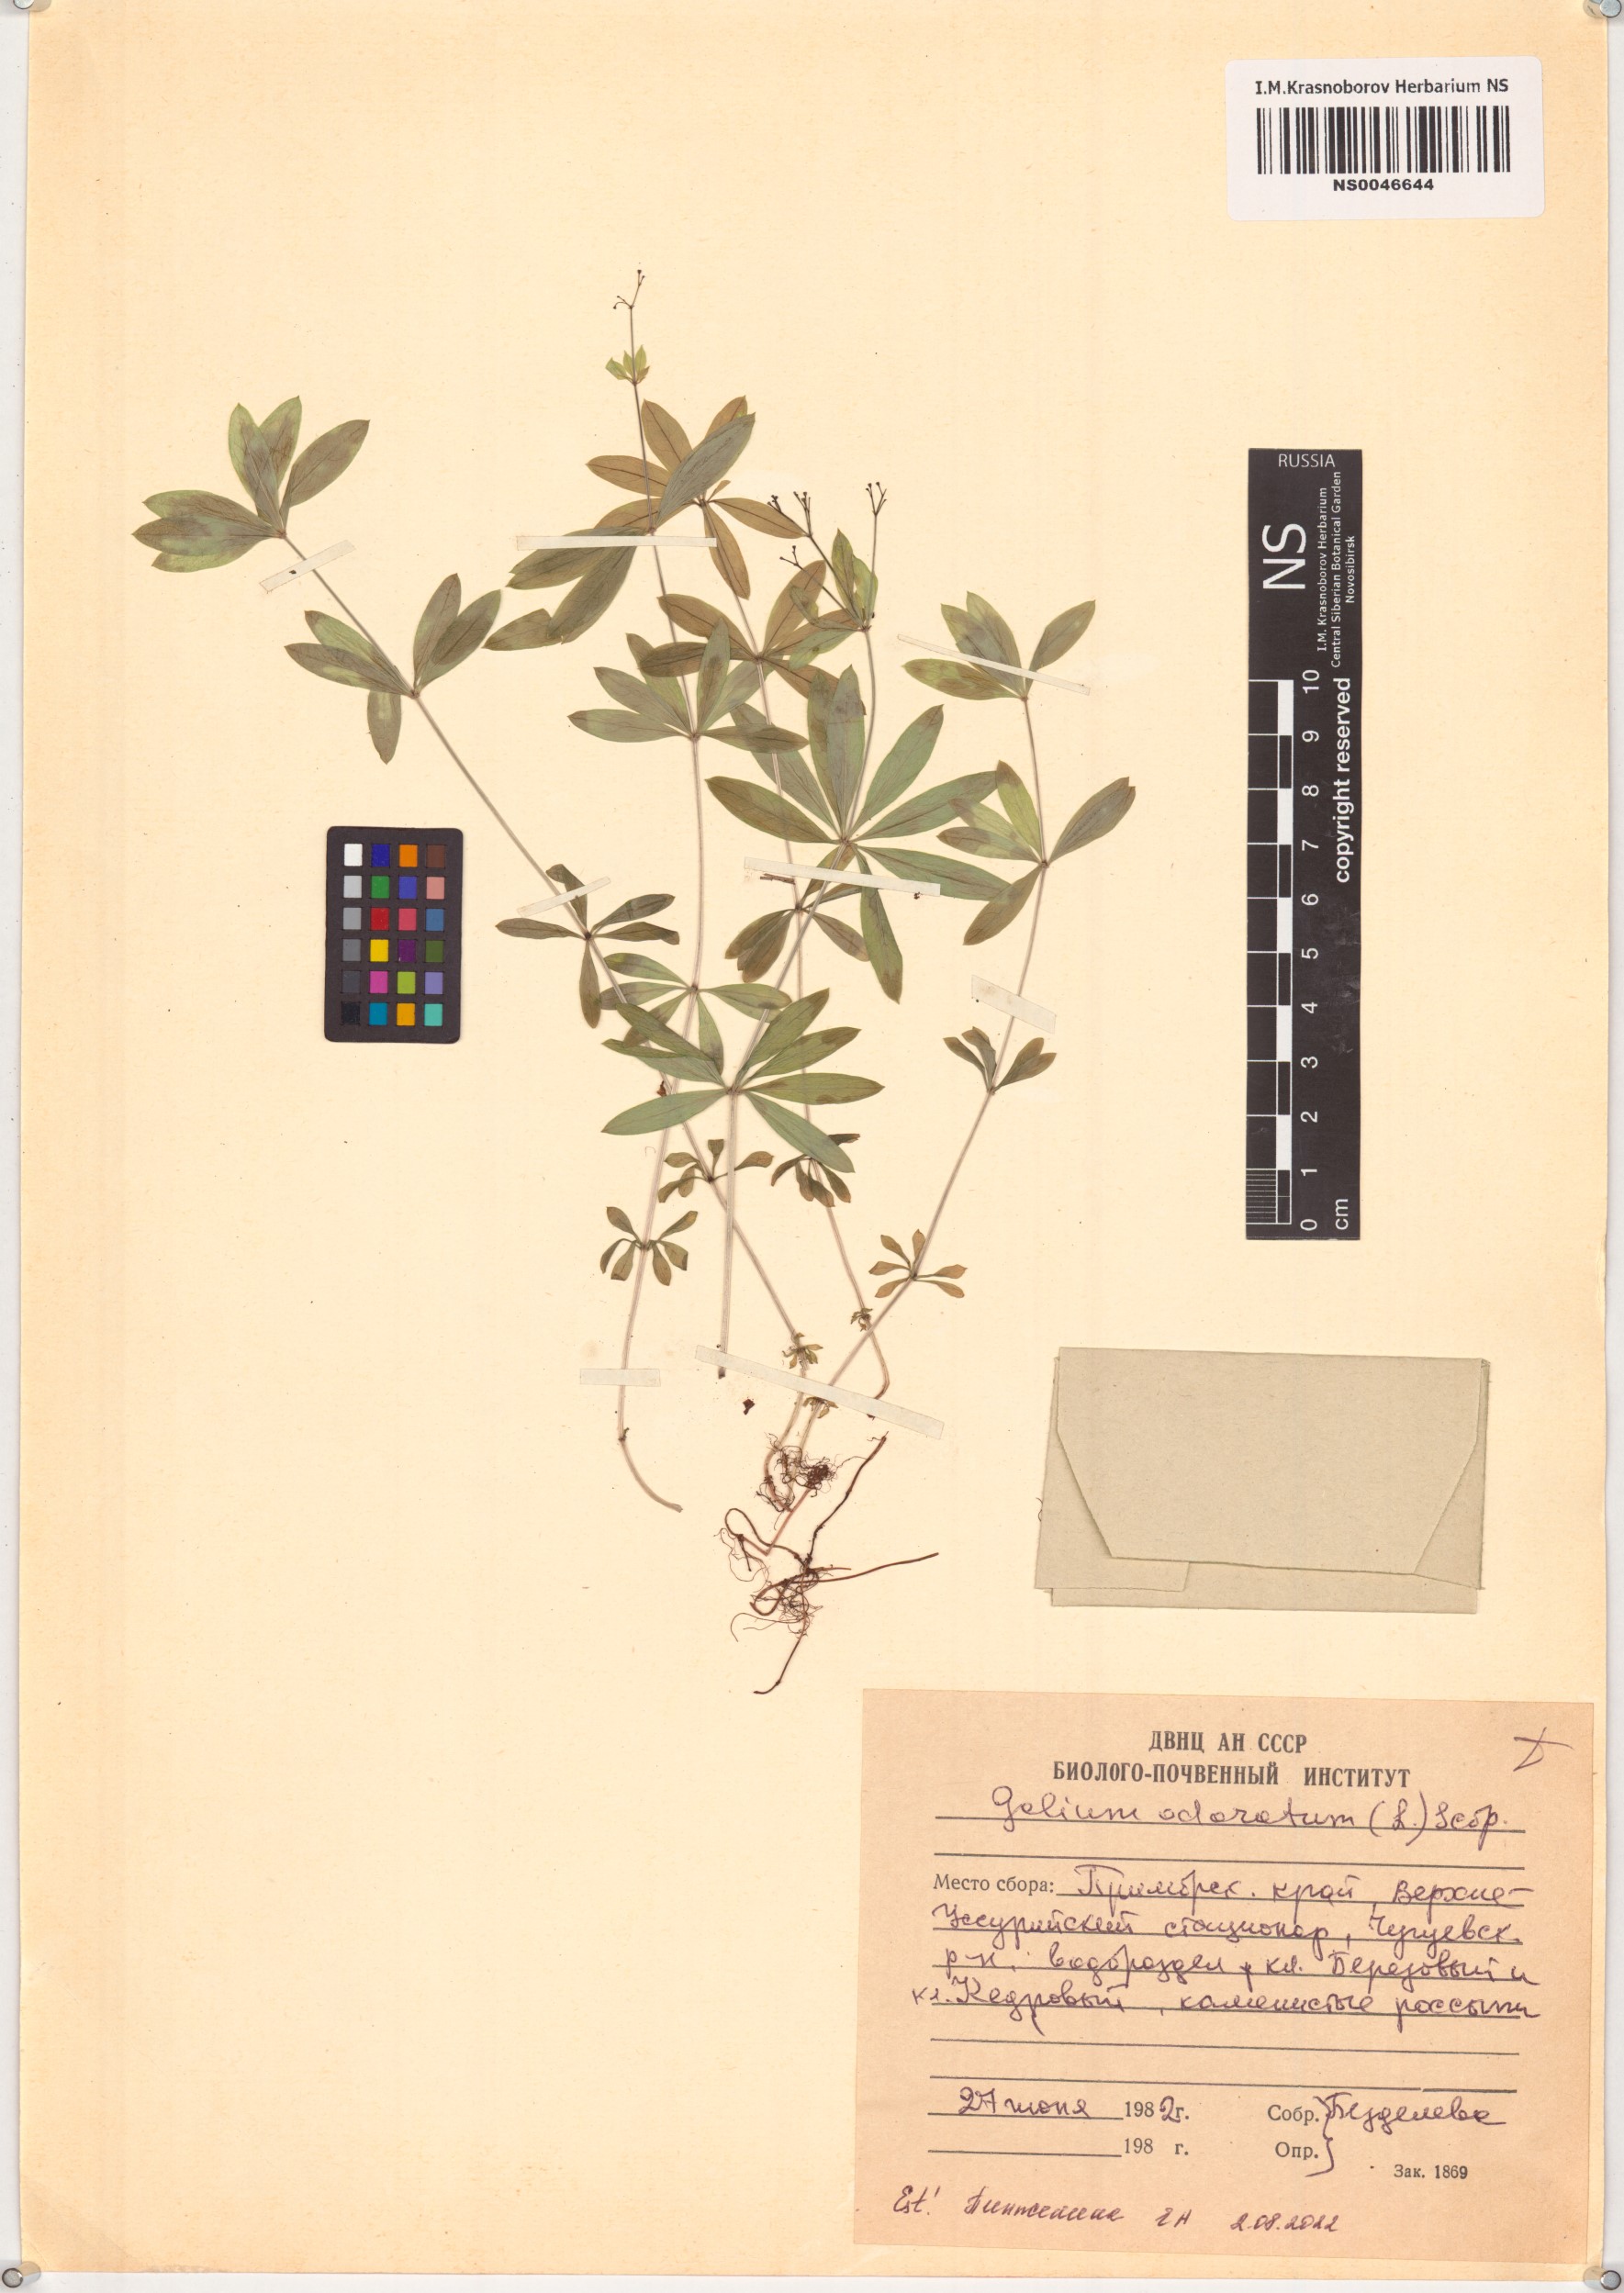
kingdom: Plantae
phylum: Tracheophyta
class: Magnoliopsida
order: Gentianales
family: Rubiaceae
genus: Galium
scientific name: Galium odoratum
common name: Sweet woodruff
